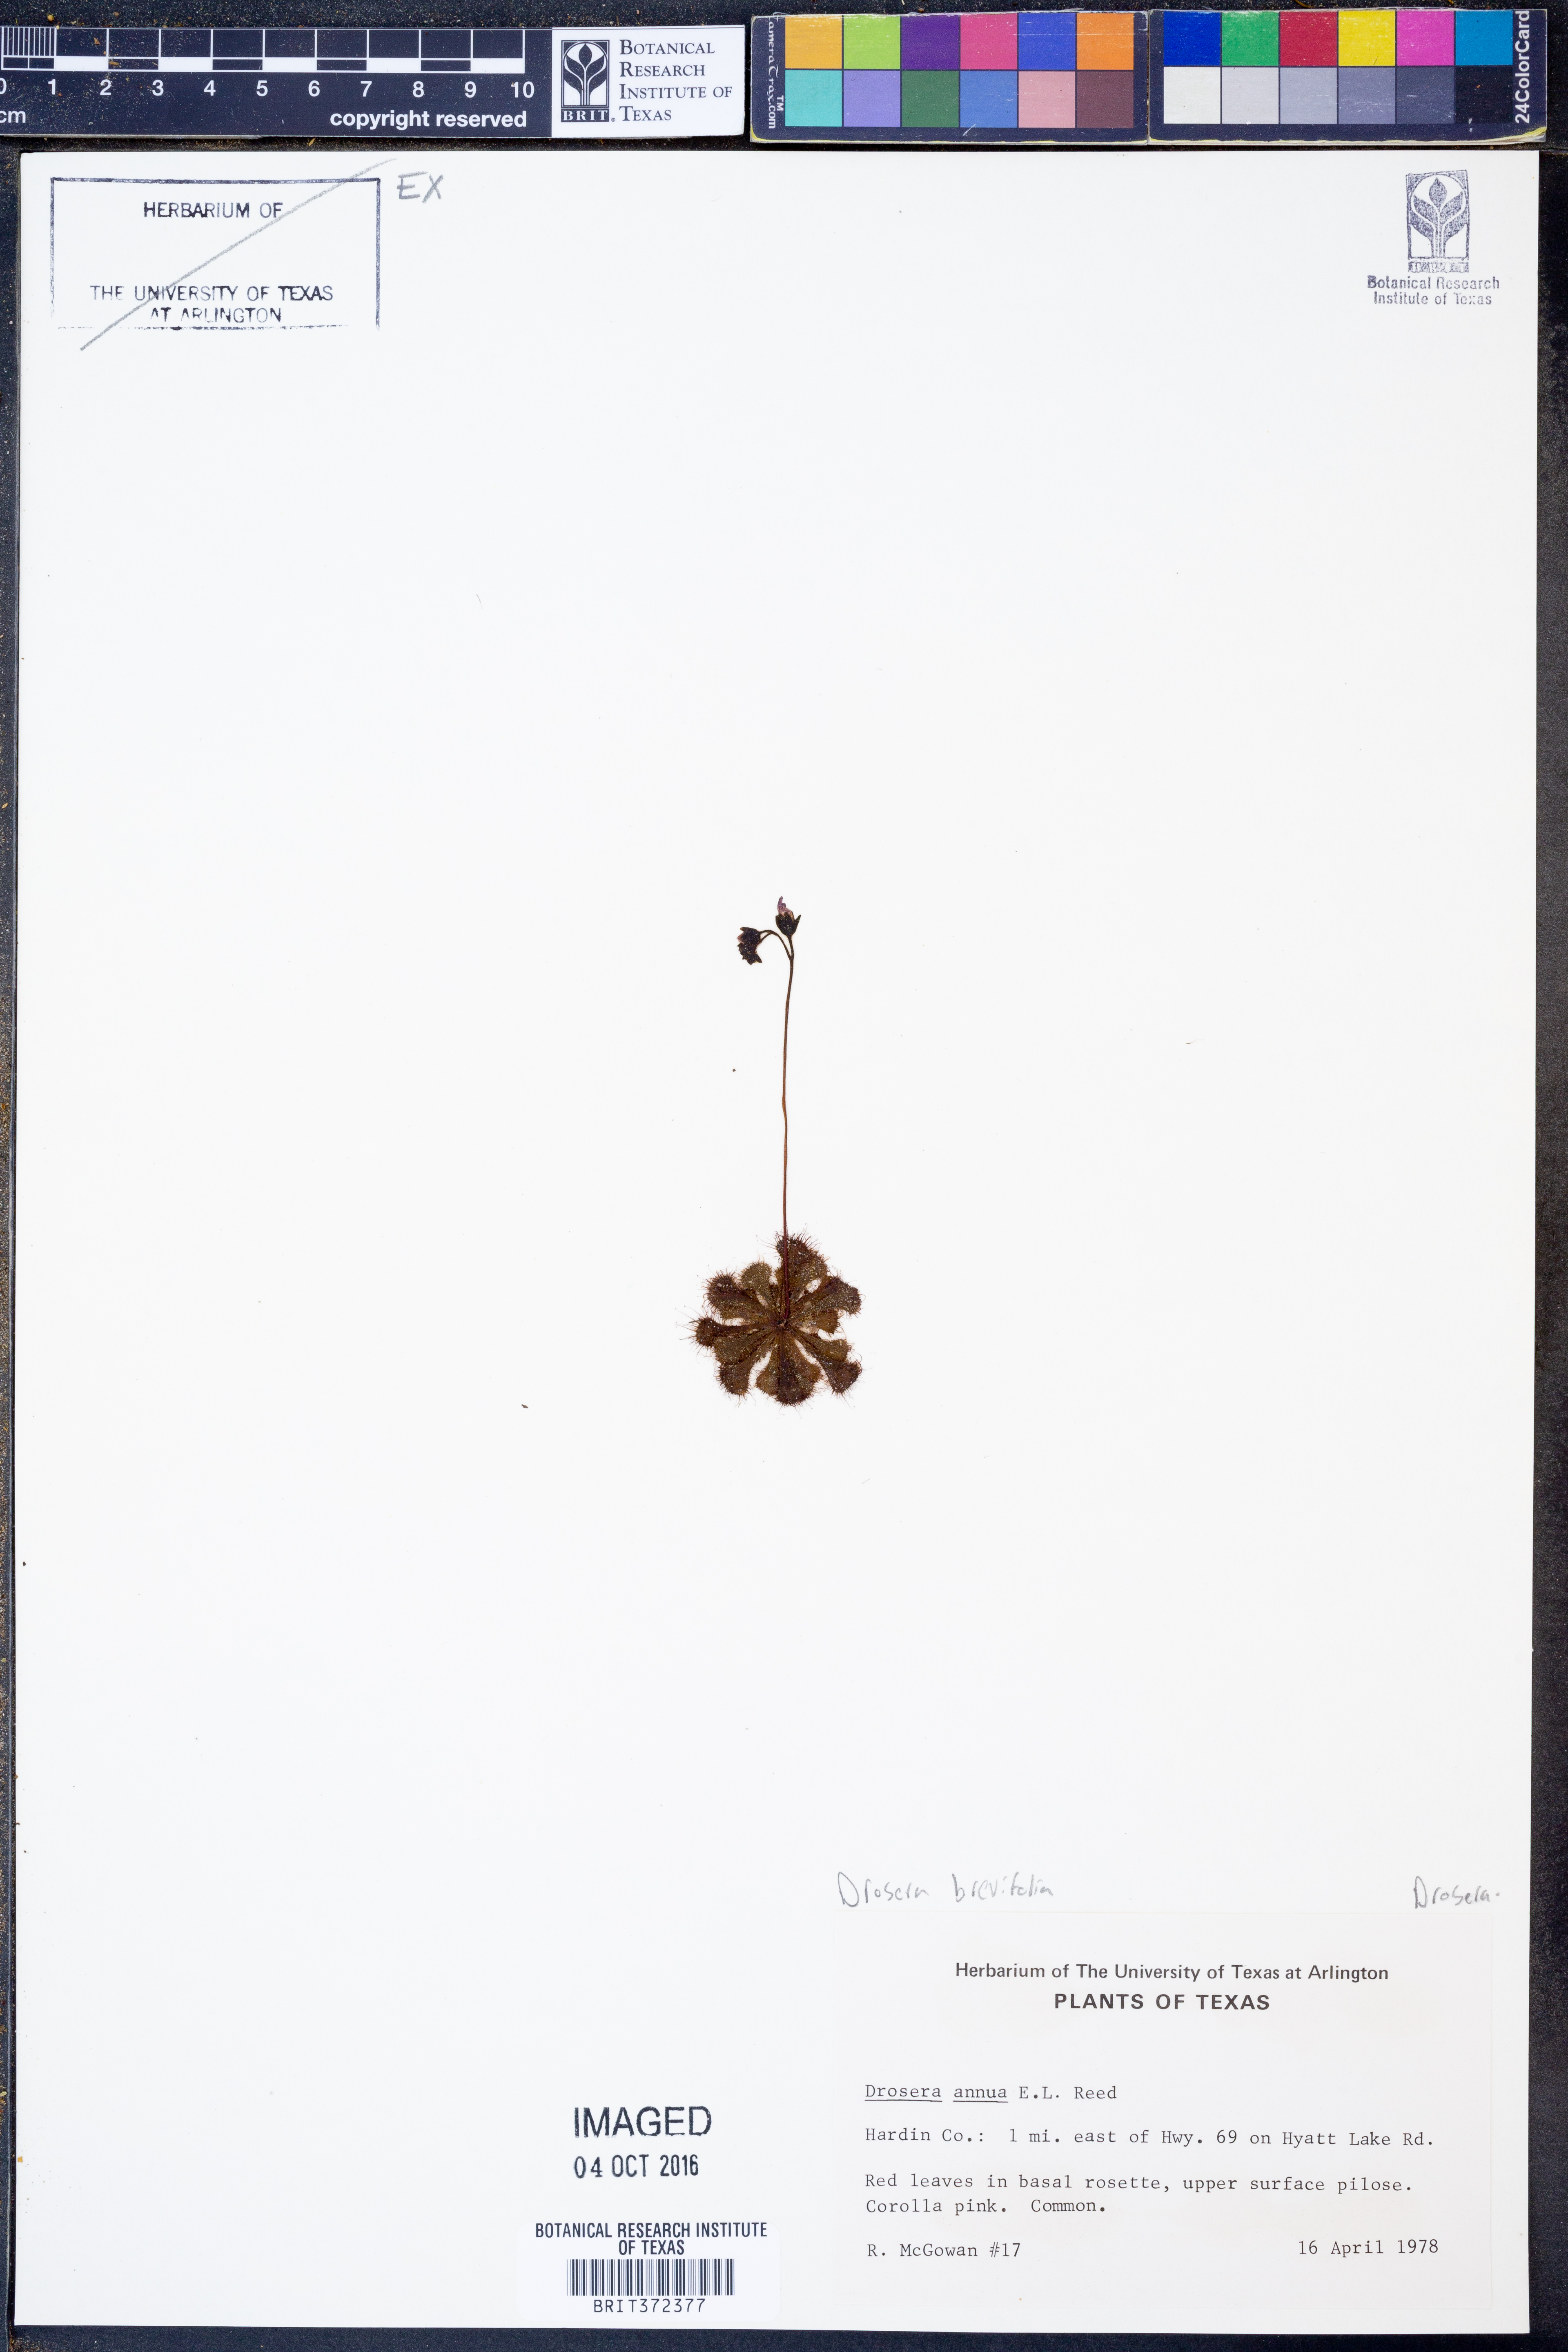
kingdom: Plantae
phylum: Tracheophyta
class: Magnoliopsida
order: Caryophyllales
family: Droseraceae
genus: Drosera
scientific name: Drosera brevifolia
